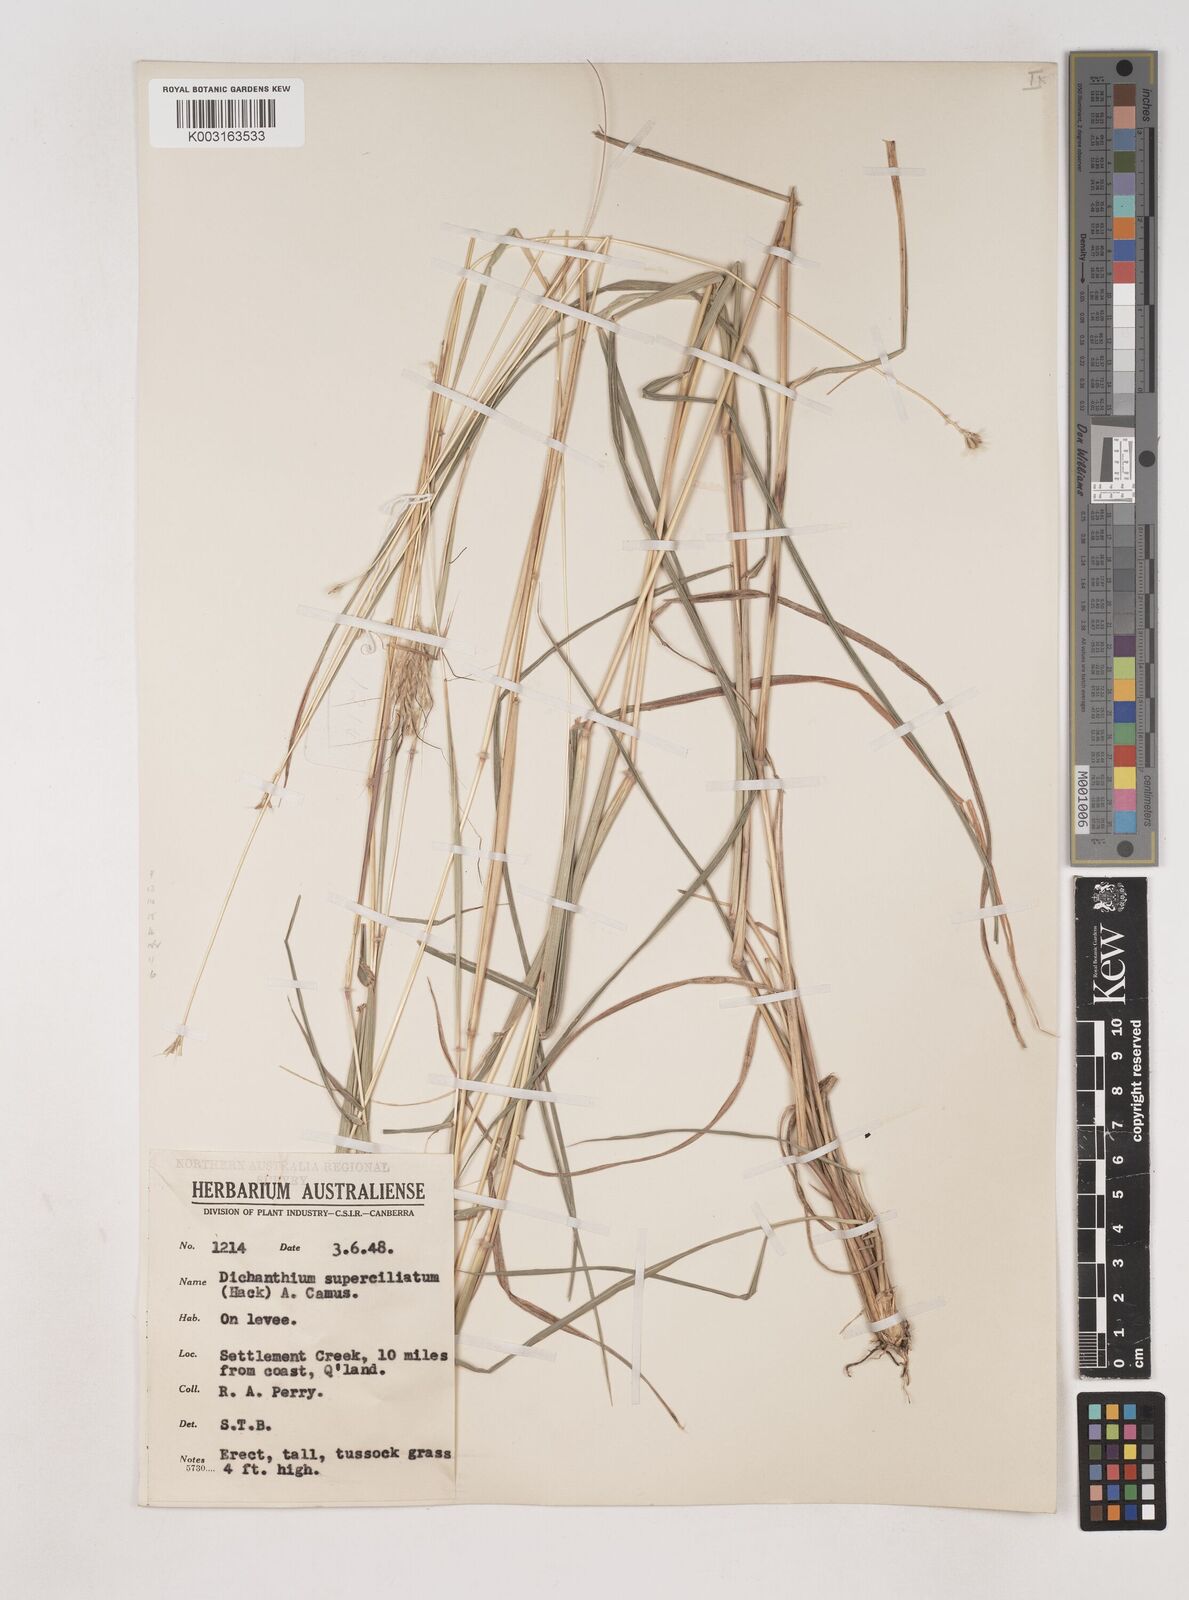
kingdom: Plantae
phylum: Tracheophyta
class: Liliopsida
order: Poales
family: Poaceae
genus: Dichanthium
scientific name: Dichanthium sericeum
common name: Silky bluestem
